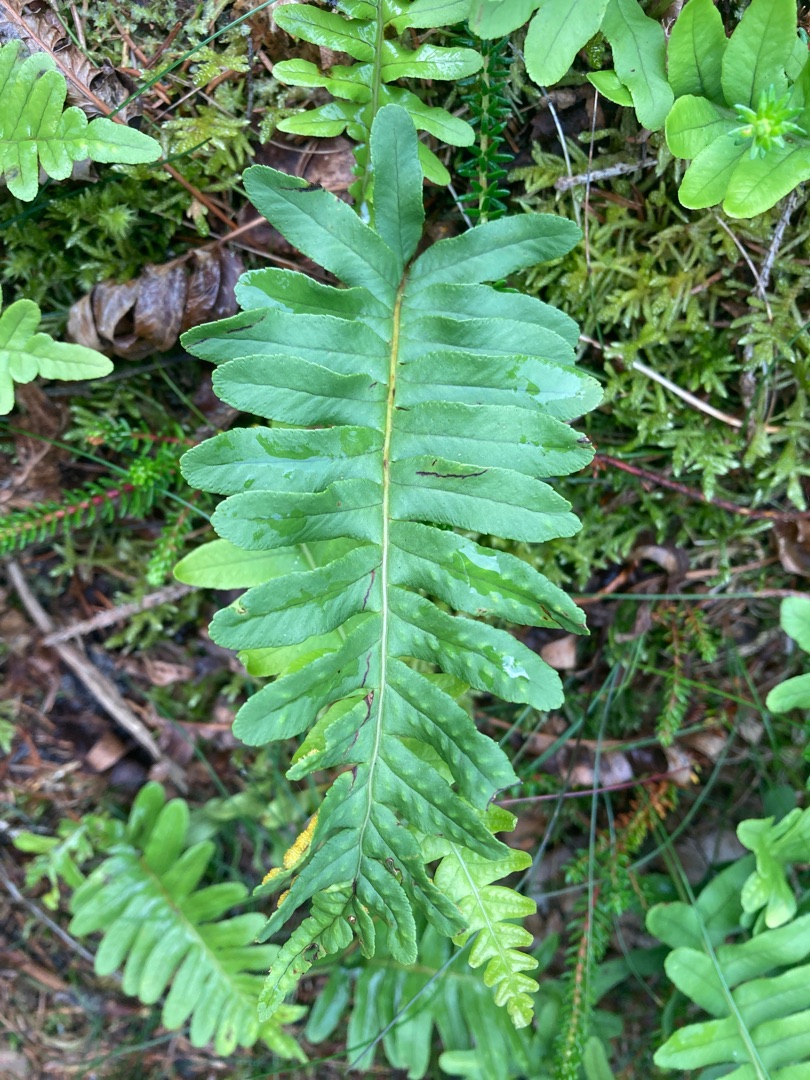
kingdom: Plantae
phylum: Tracheophyta
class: Polypodiopsida
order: Polypodiales
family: Polypodiaceae
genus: Polypodium
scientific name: Polypodium vulgare
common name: Almindelig engelsød
